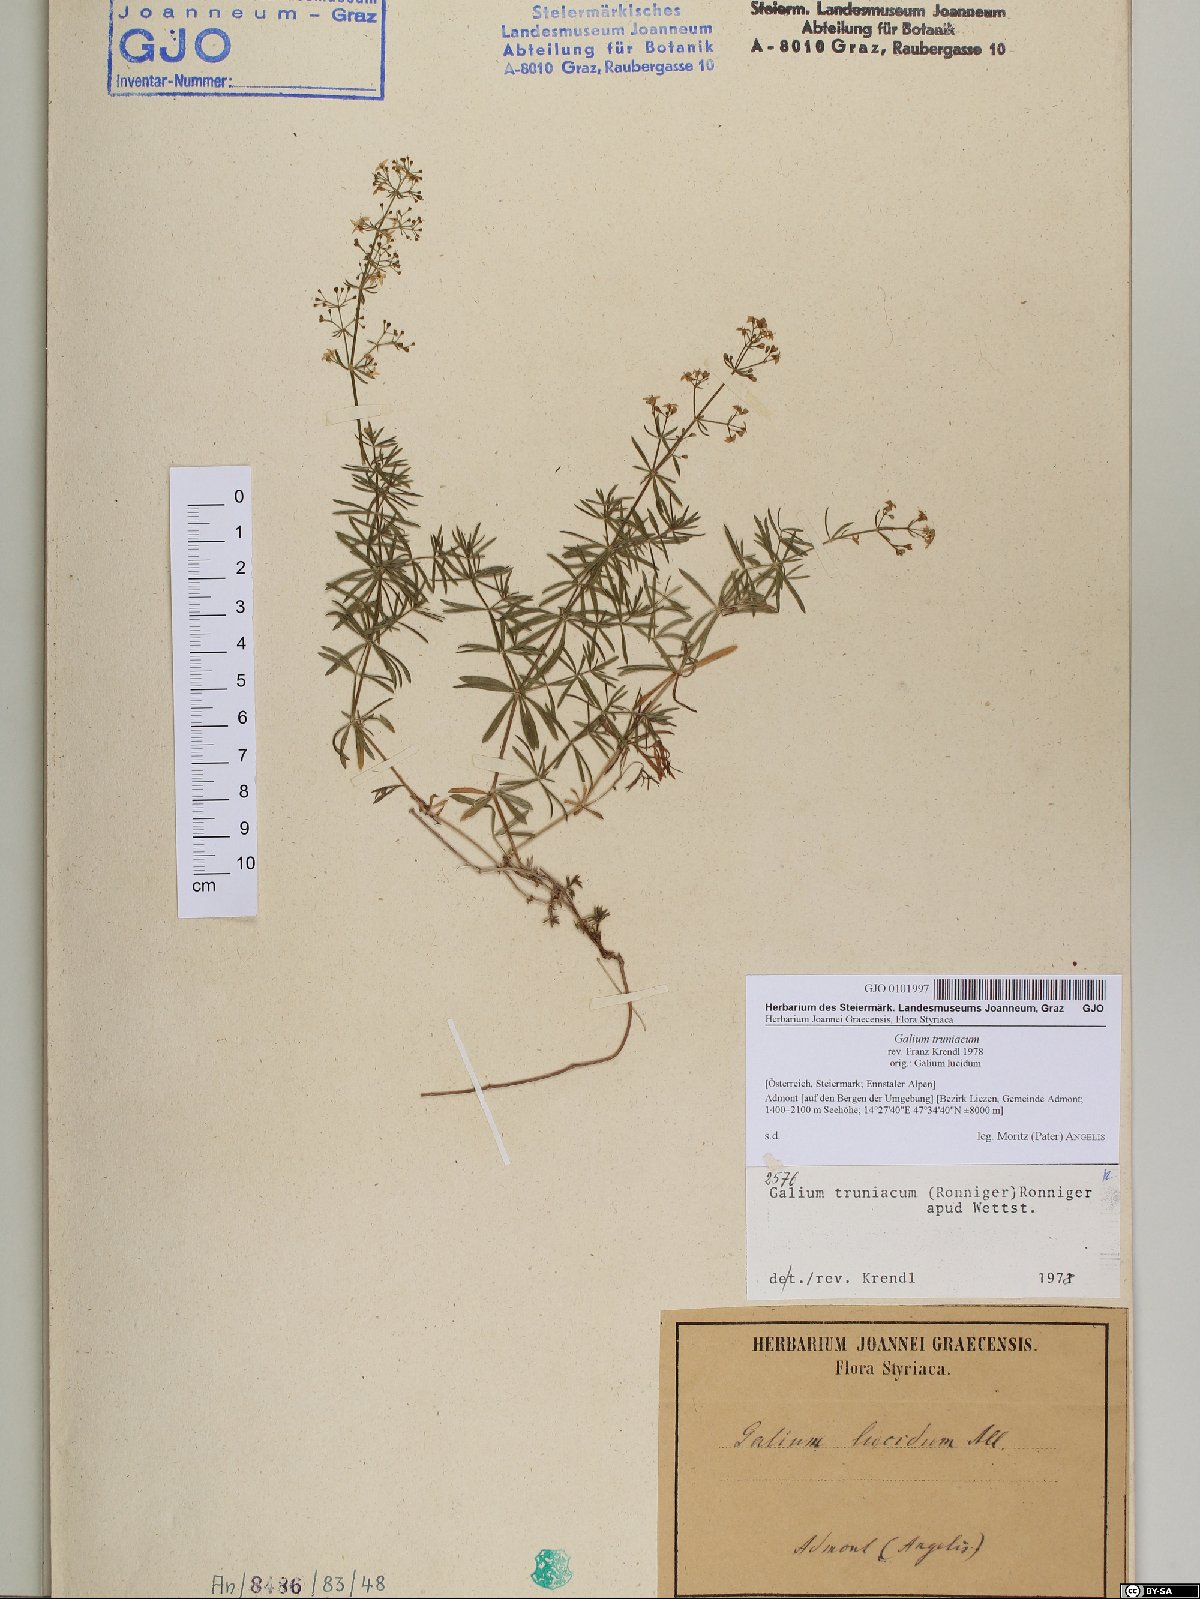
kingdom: Plantae
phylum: Tracheophyta
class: Magnoliopsida
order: Gentianales
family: Rubiaceae
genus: Galium
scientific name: Galium truniacum
